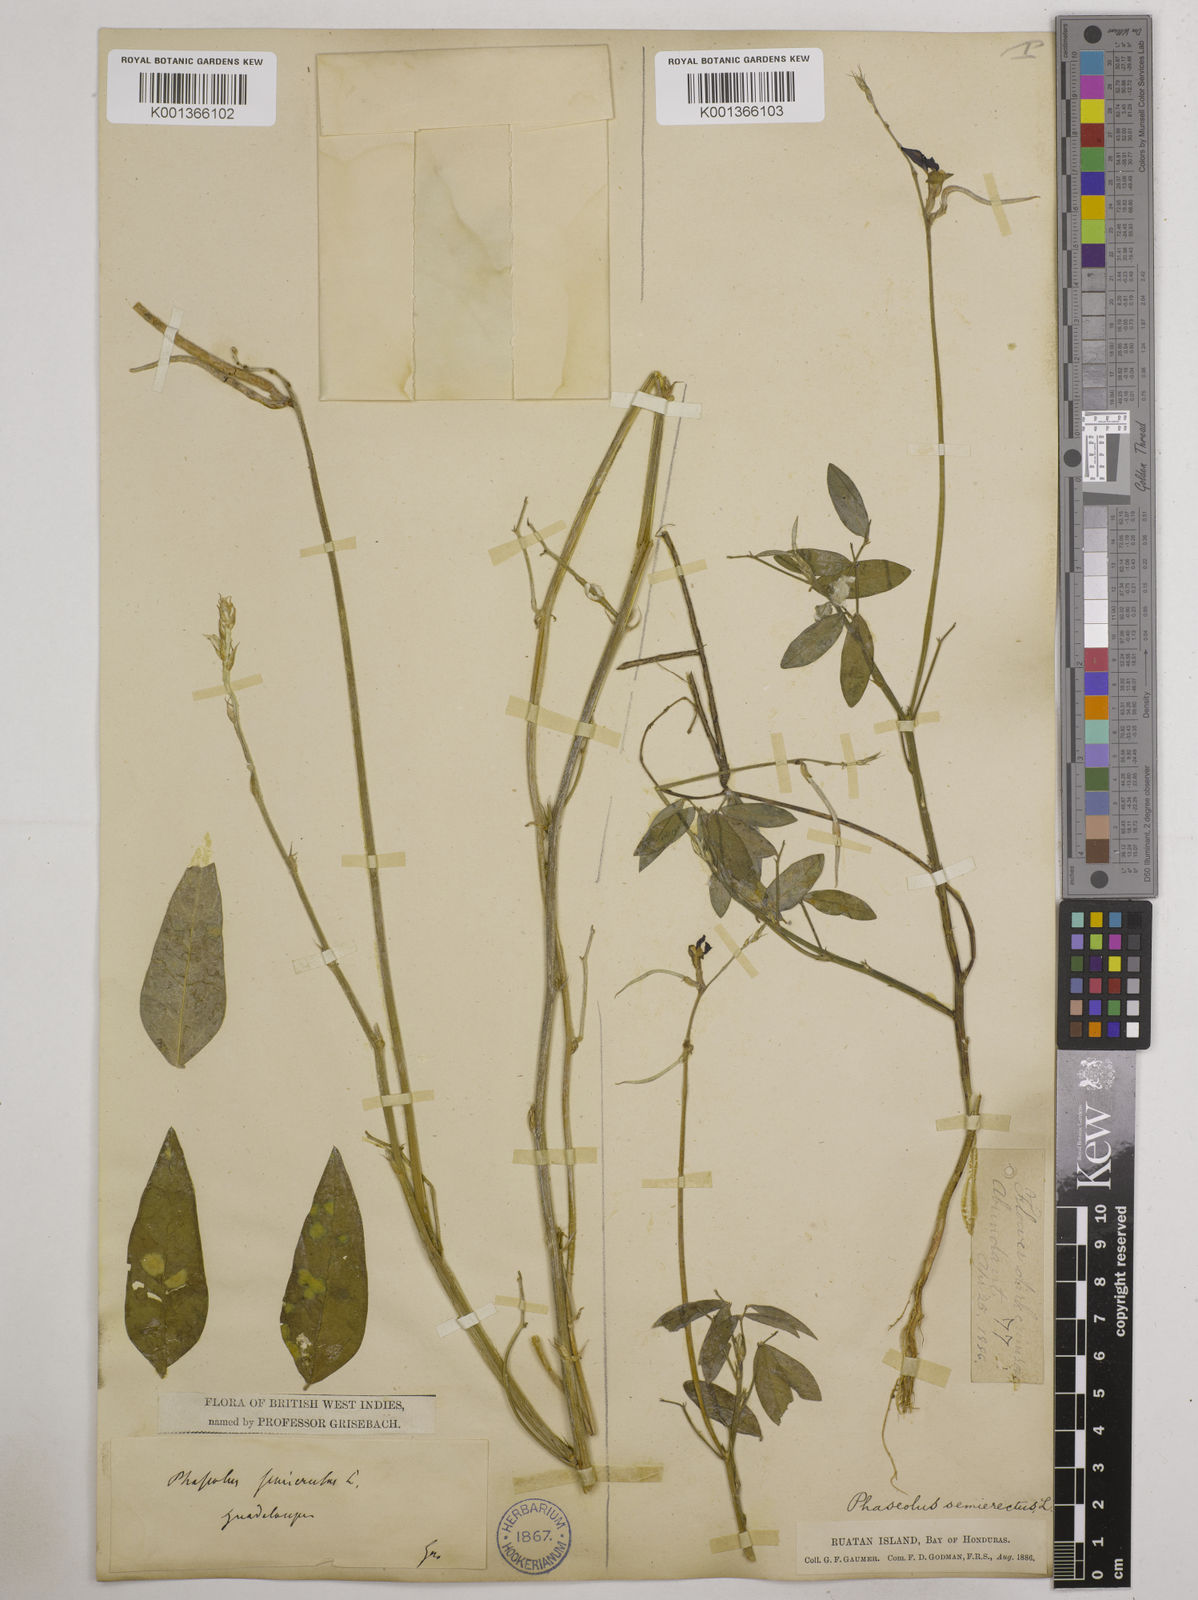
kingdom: Plantae
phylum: Tracheophyta
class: Magnoliopsida
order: Fabales
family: Fabaceae
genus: Macroptilium
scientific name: Macroptilium lathyroides
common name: Wild bushbean
